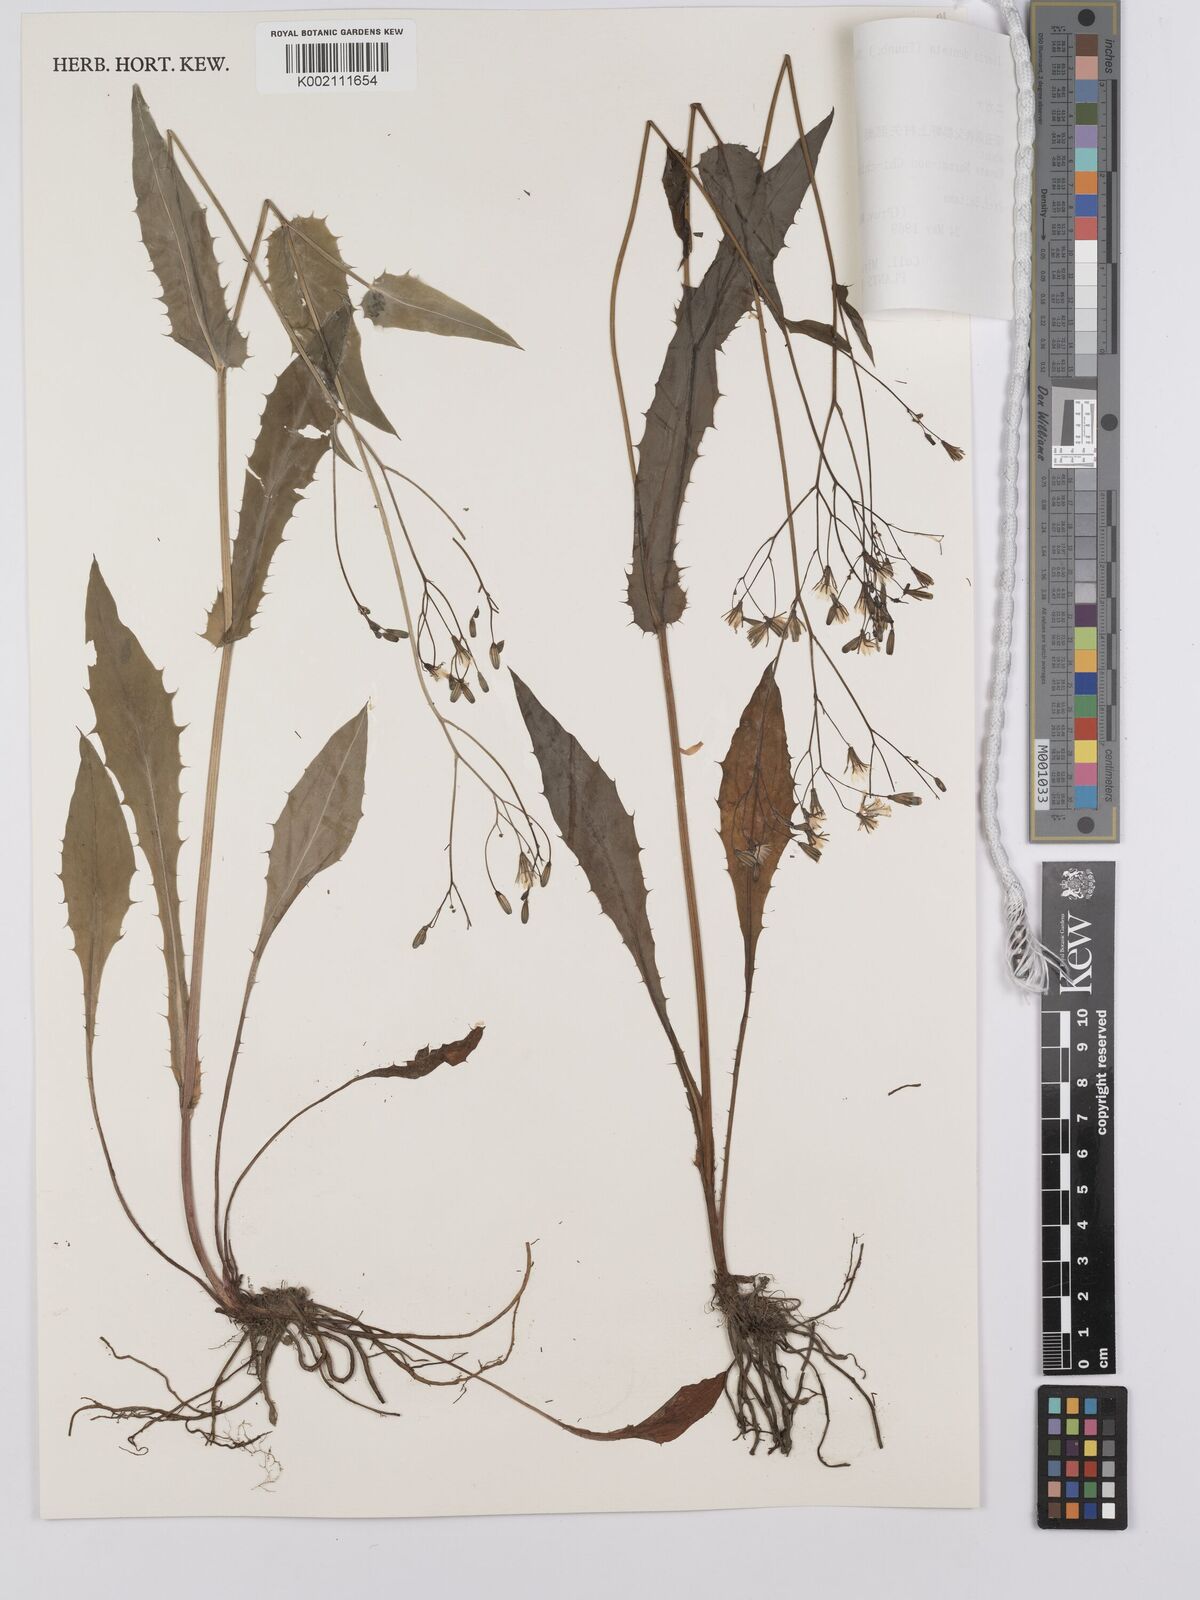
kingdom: Plantae
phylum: Tracheophyta
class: Magnoliopsida
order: Asterales
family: Asteraceae
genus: Ixeridium
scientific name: Ixeridium dentatum
